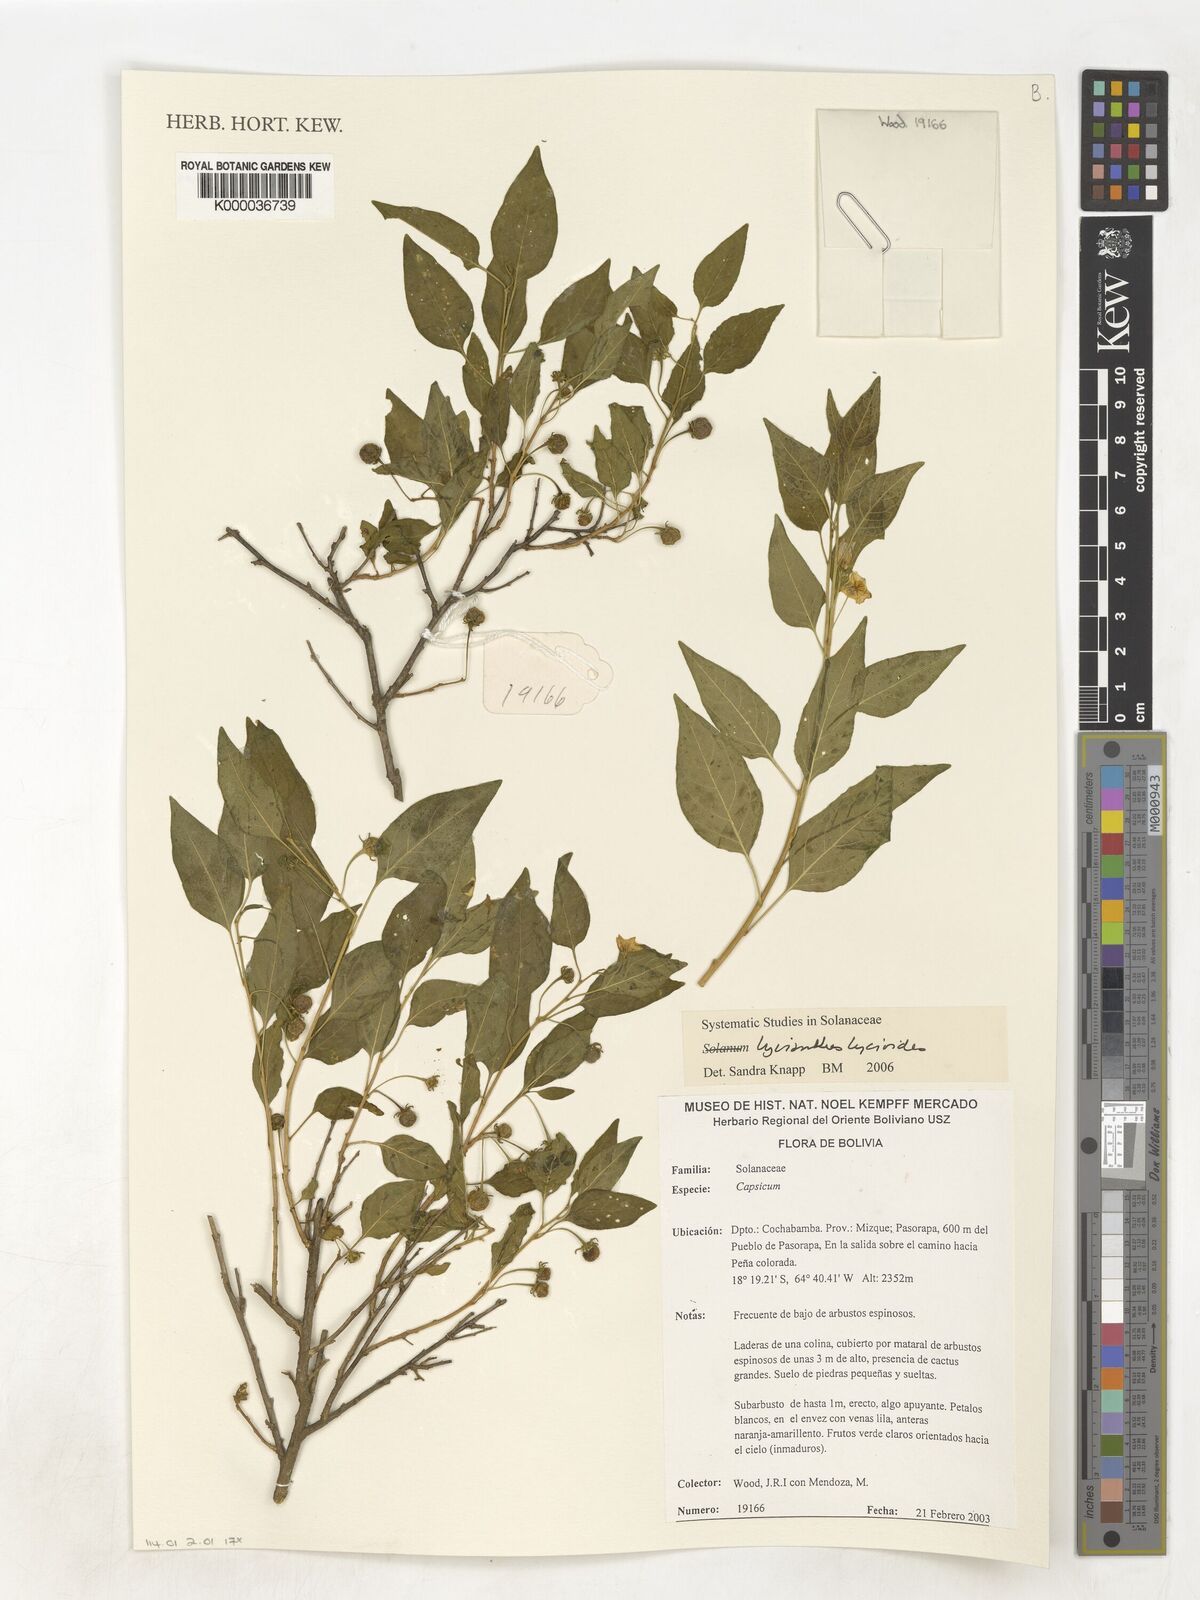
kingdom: Plantae
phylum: Tracheophyta
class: Magnoliopsida
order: Solanales
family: Solanaceae
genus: Lycianthes
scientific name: Lycianthes lycioides
